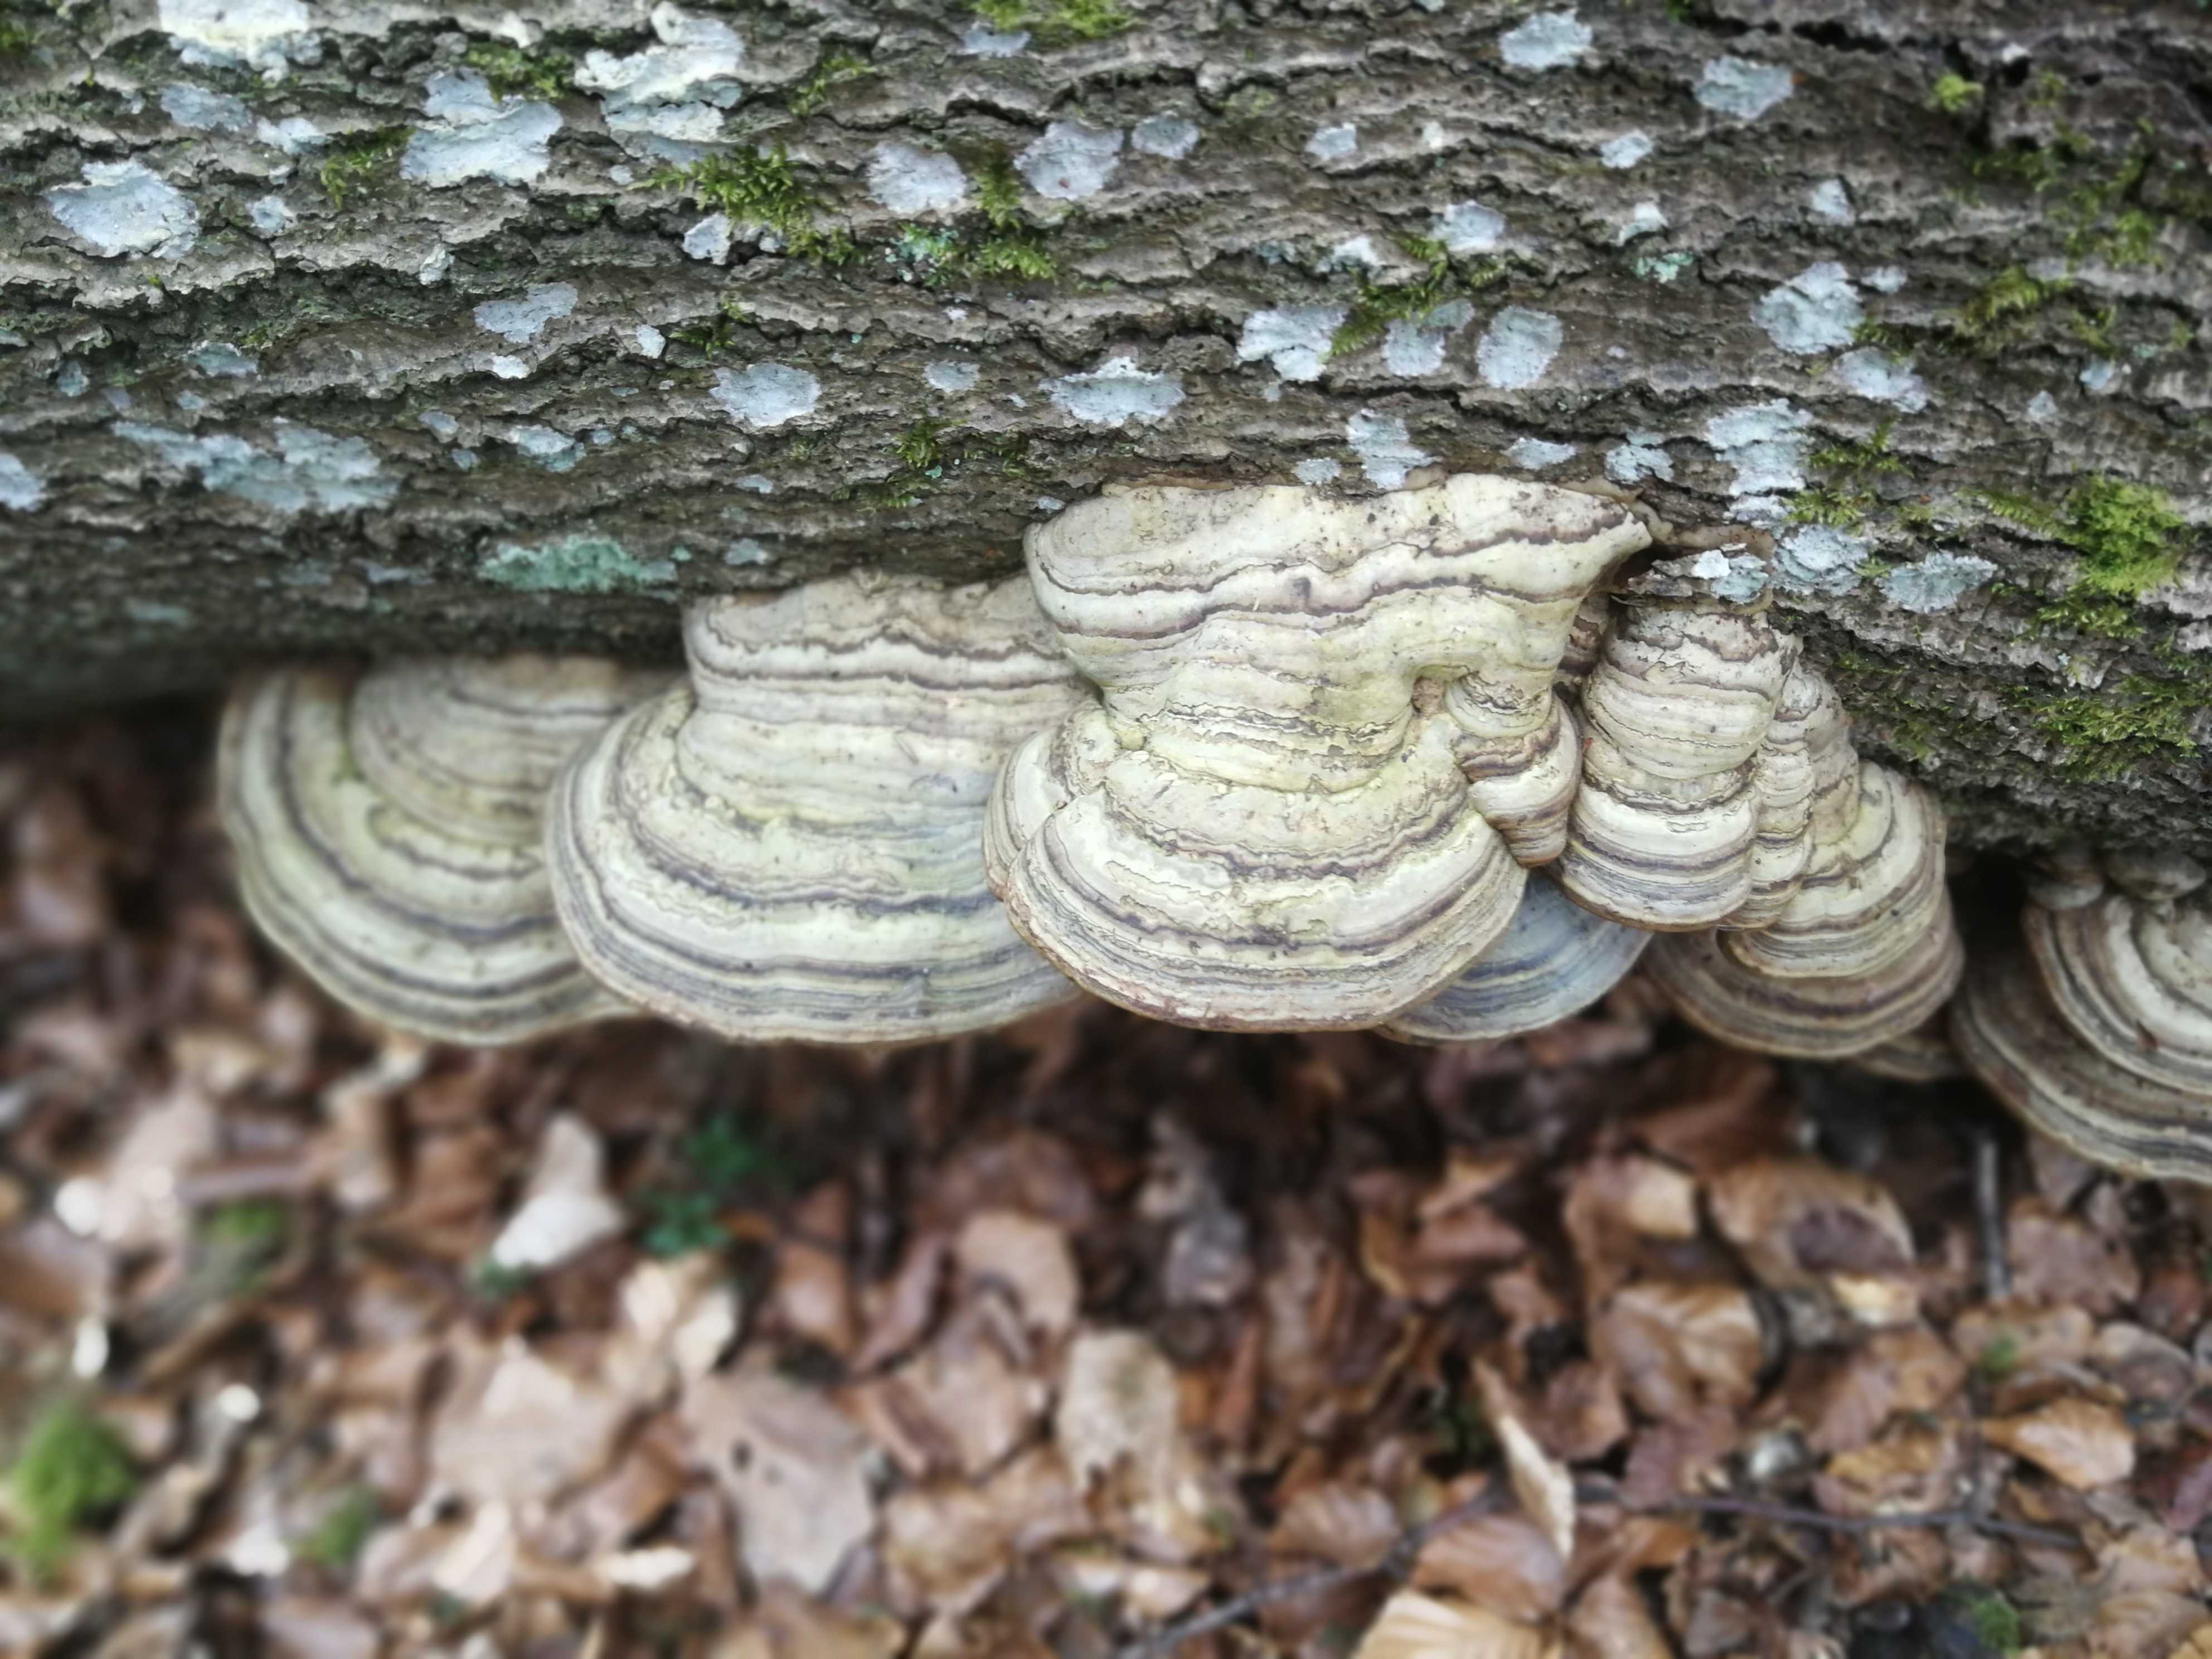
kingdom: Fungi
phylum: Basidiomycota
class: Agaricomycetes
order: Polyporales
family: Polyporaceae
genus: Fomes
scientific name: Fomes fomentarius
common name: tøndersvamp
